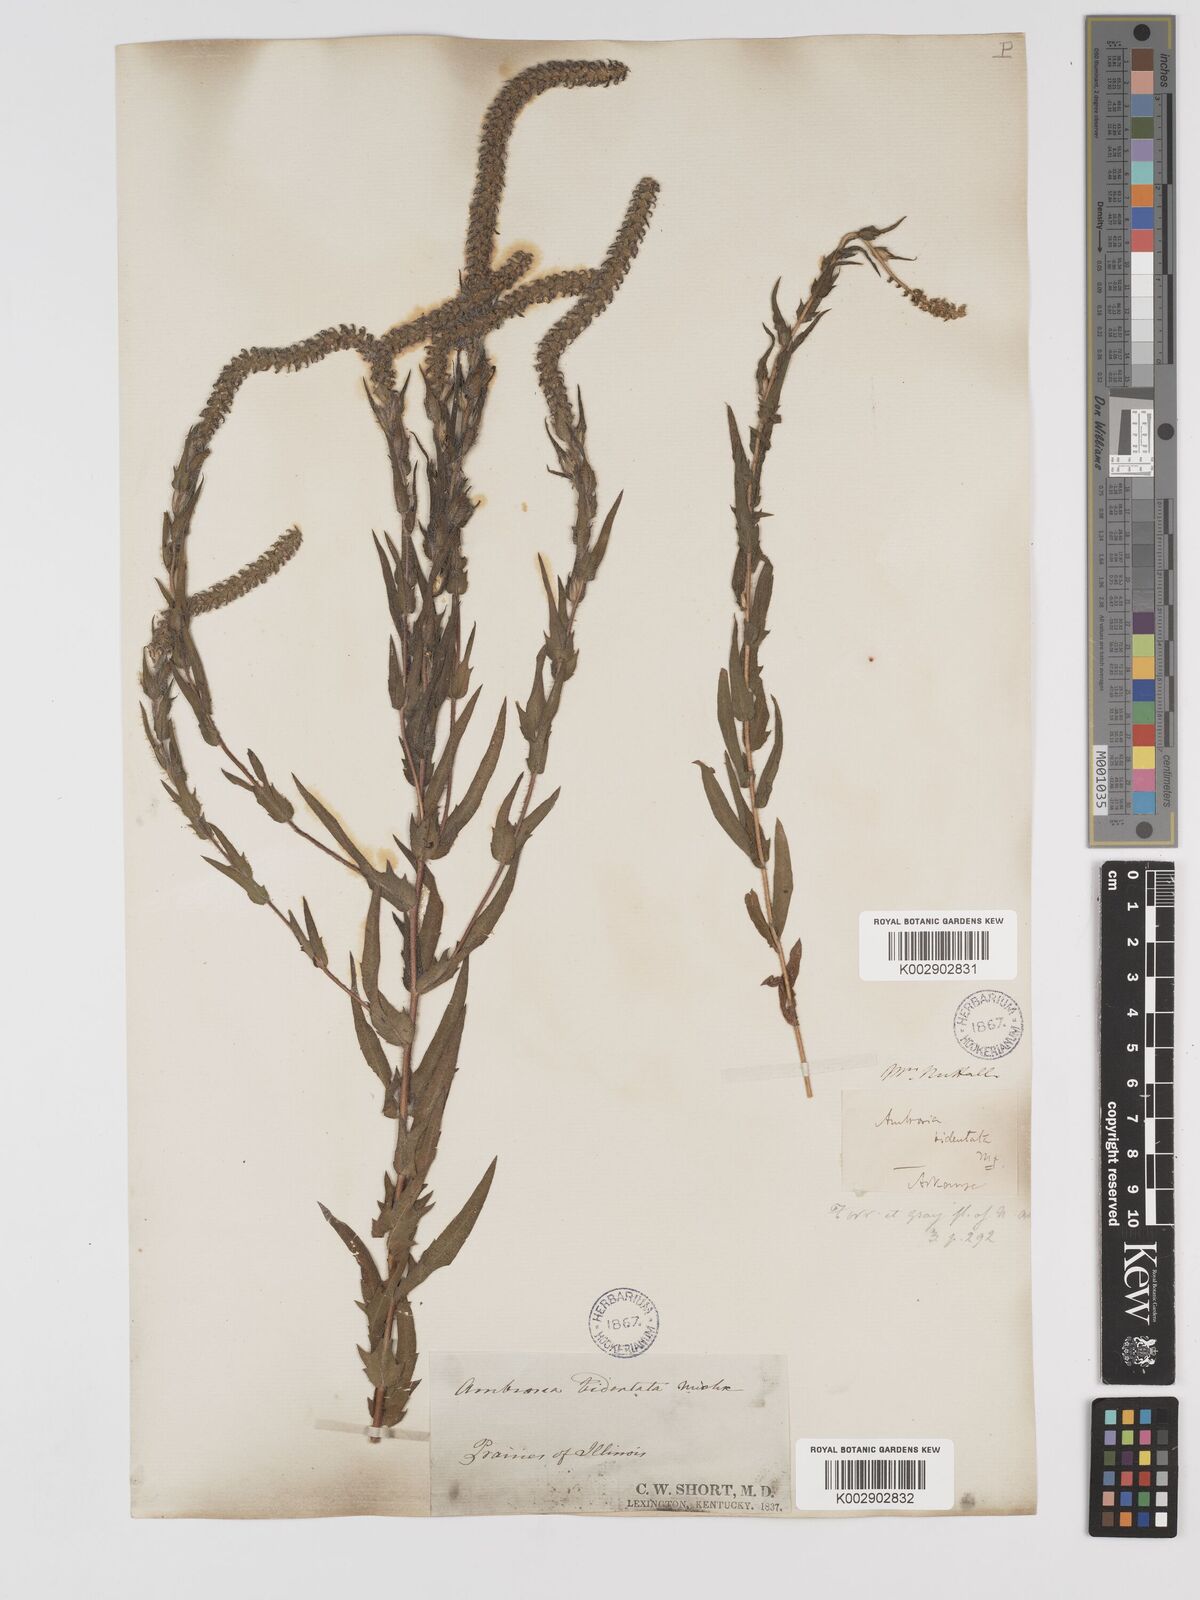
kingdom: Plantae
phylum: Tracheophyta
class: Magnoliopsida
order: Asterales
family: Asteraceae
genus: Ambrosia
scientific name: Ambrosia bidentata
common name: Southern ragweed
